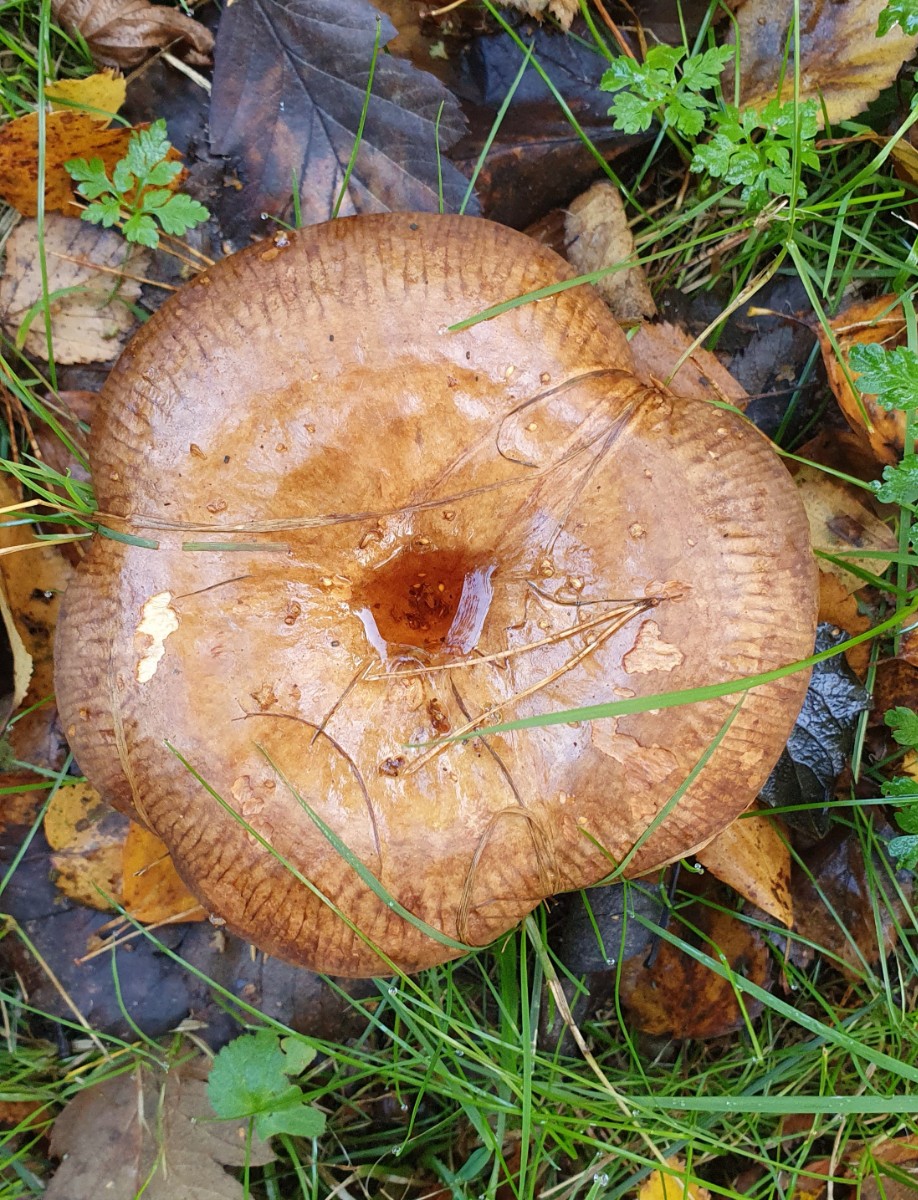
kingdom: Fungi
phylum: Basidiomycota
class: Agaricomycetes
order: Boletales
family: Paxillaceae
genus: Paxillus
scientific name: Paxillus involutus
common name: almindelig netbladhat
